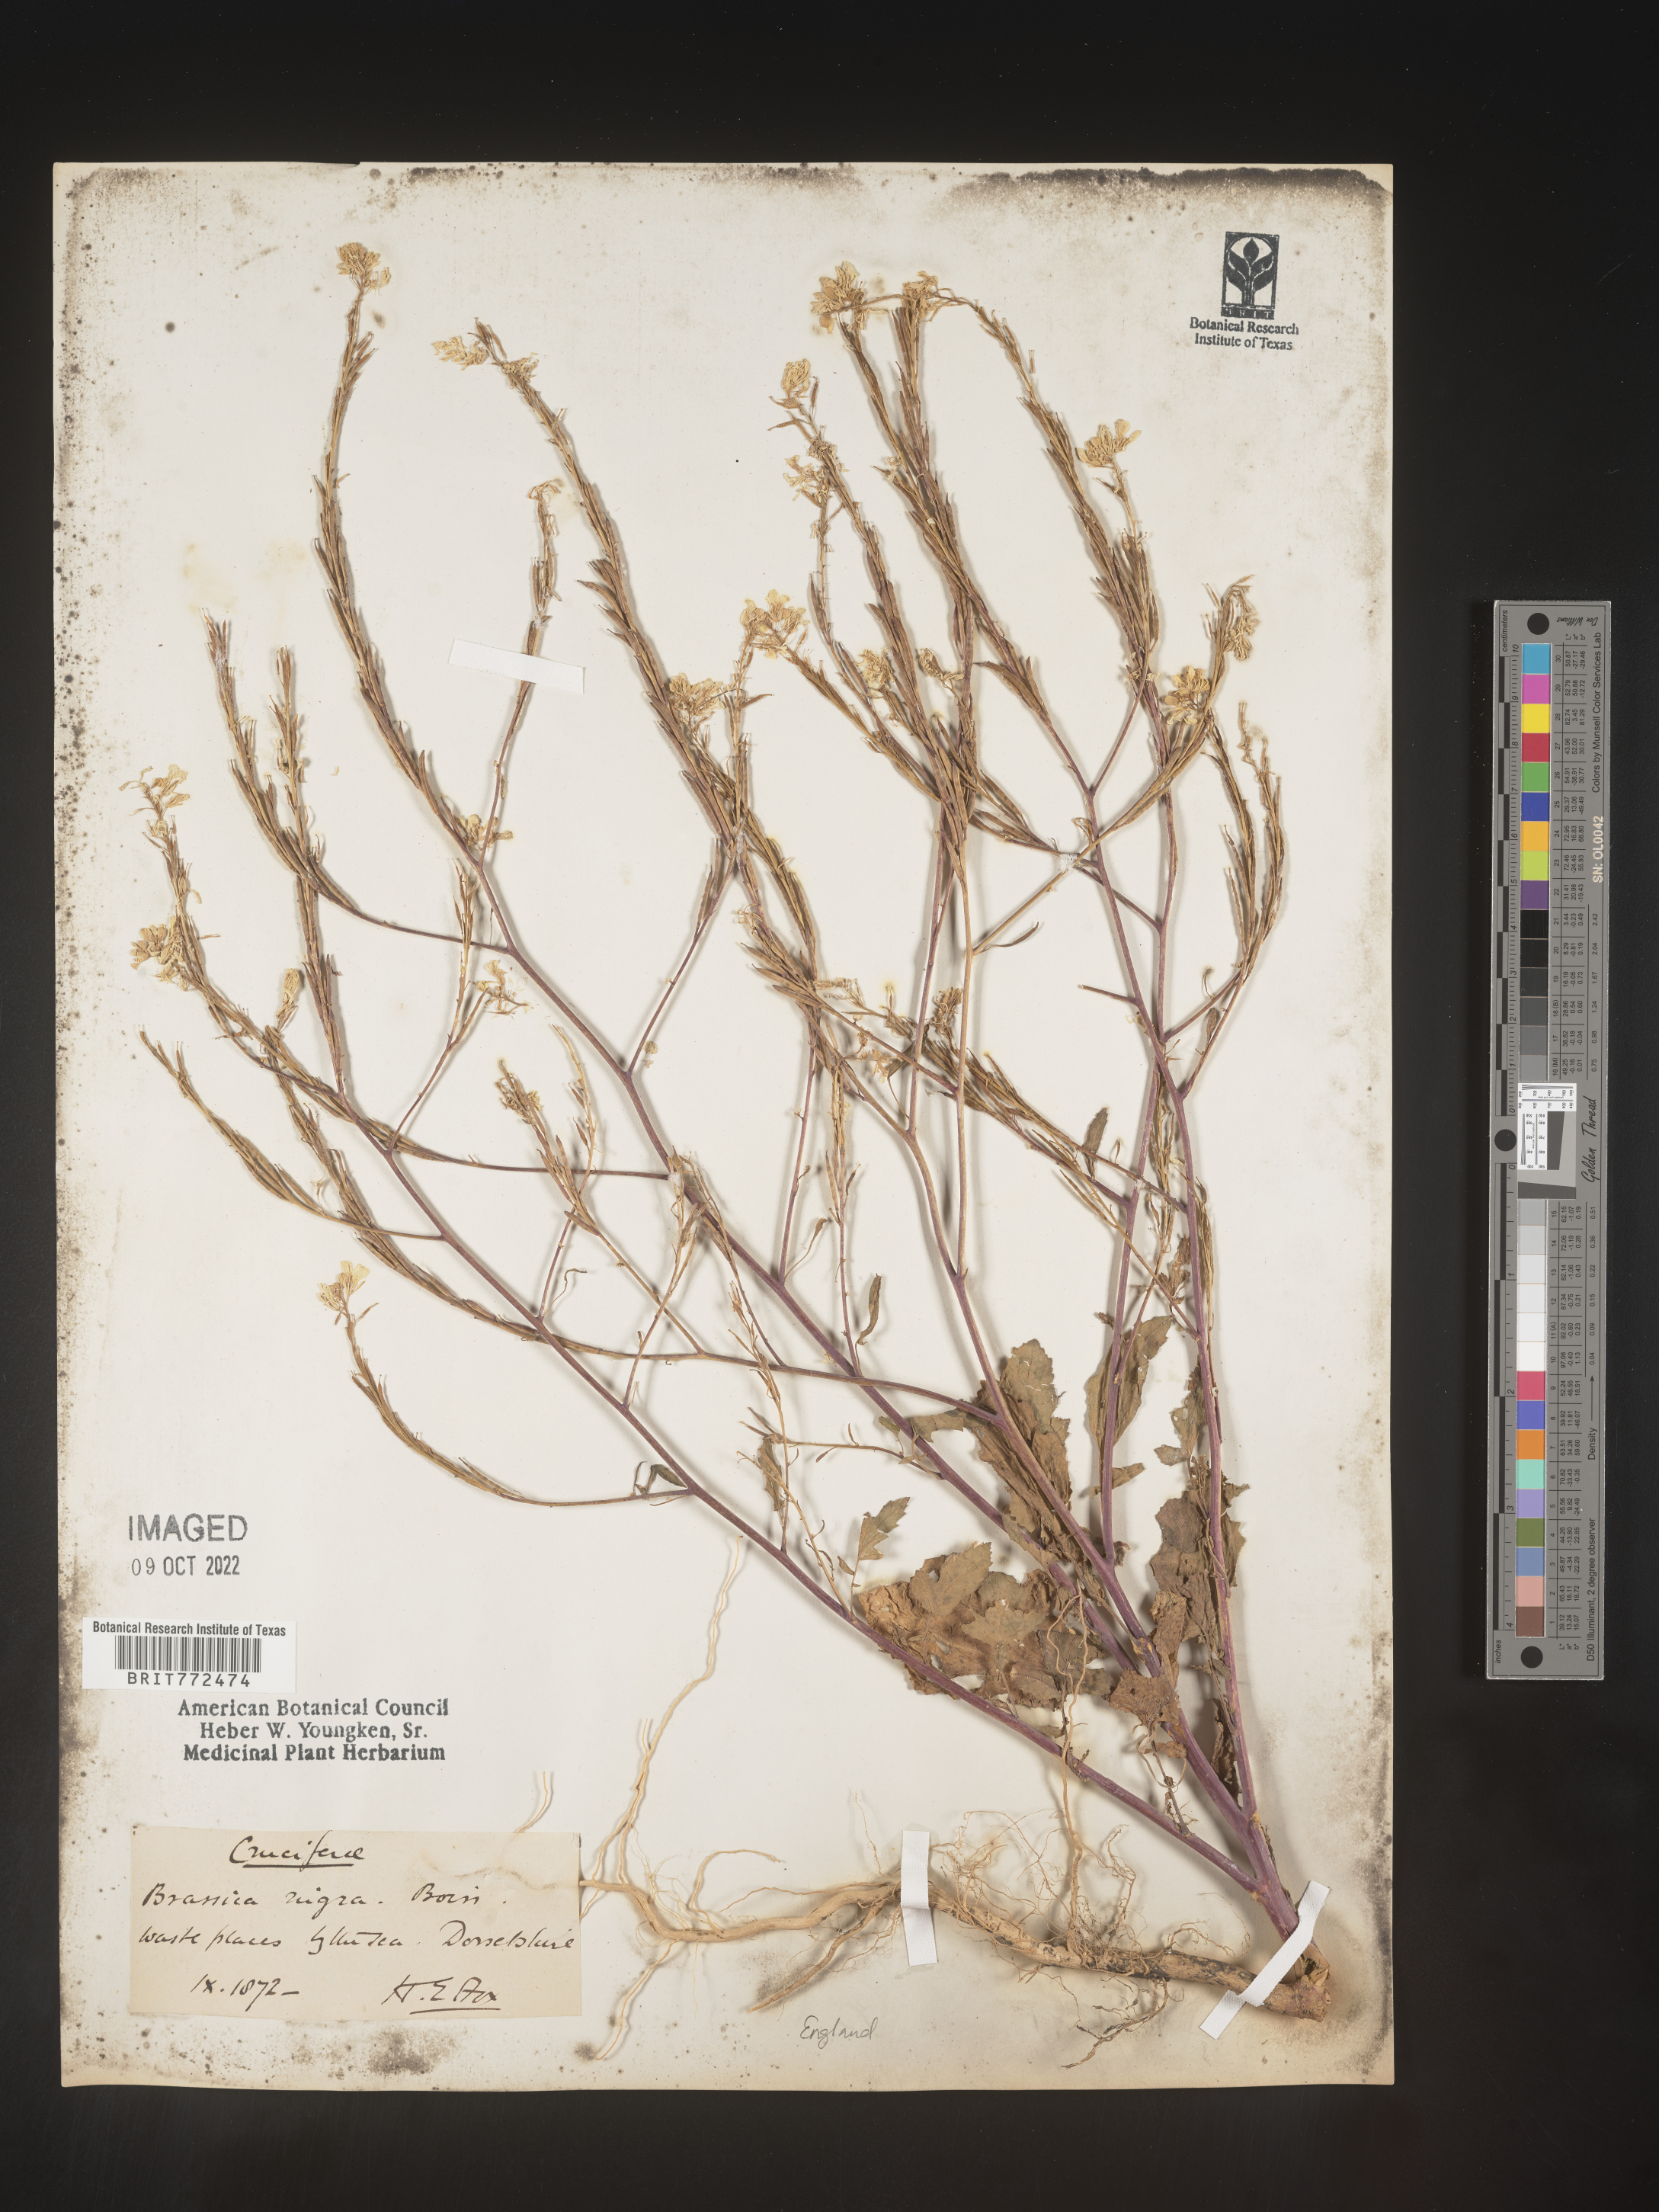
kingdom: Plantae
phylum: Tracheophyta
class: Magnoliopsida
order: Brassicales
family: Brassicaceae
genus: Brassica
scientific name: Brassica
